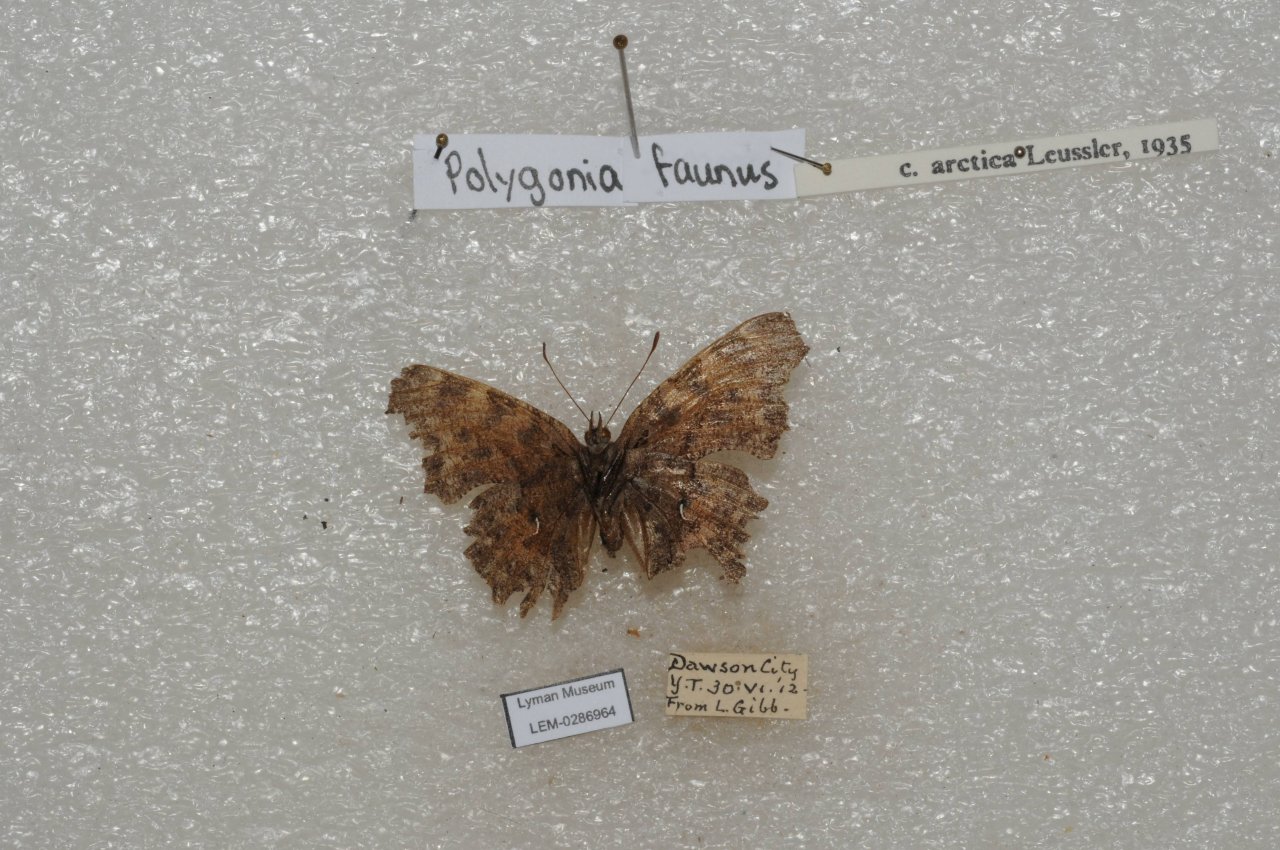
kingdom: Animalia
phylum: Arthropoda
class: Insecta
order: Lepidoptera
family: Nymphalidae
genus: Polygonia
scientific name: Polygonia faunus
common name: Green Comma
